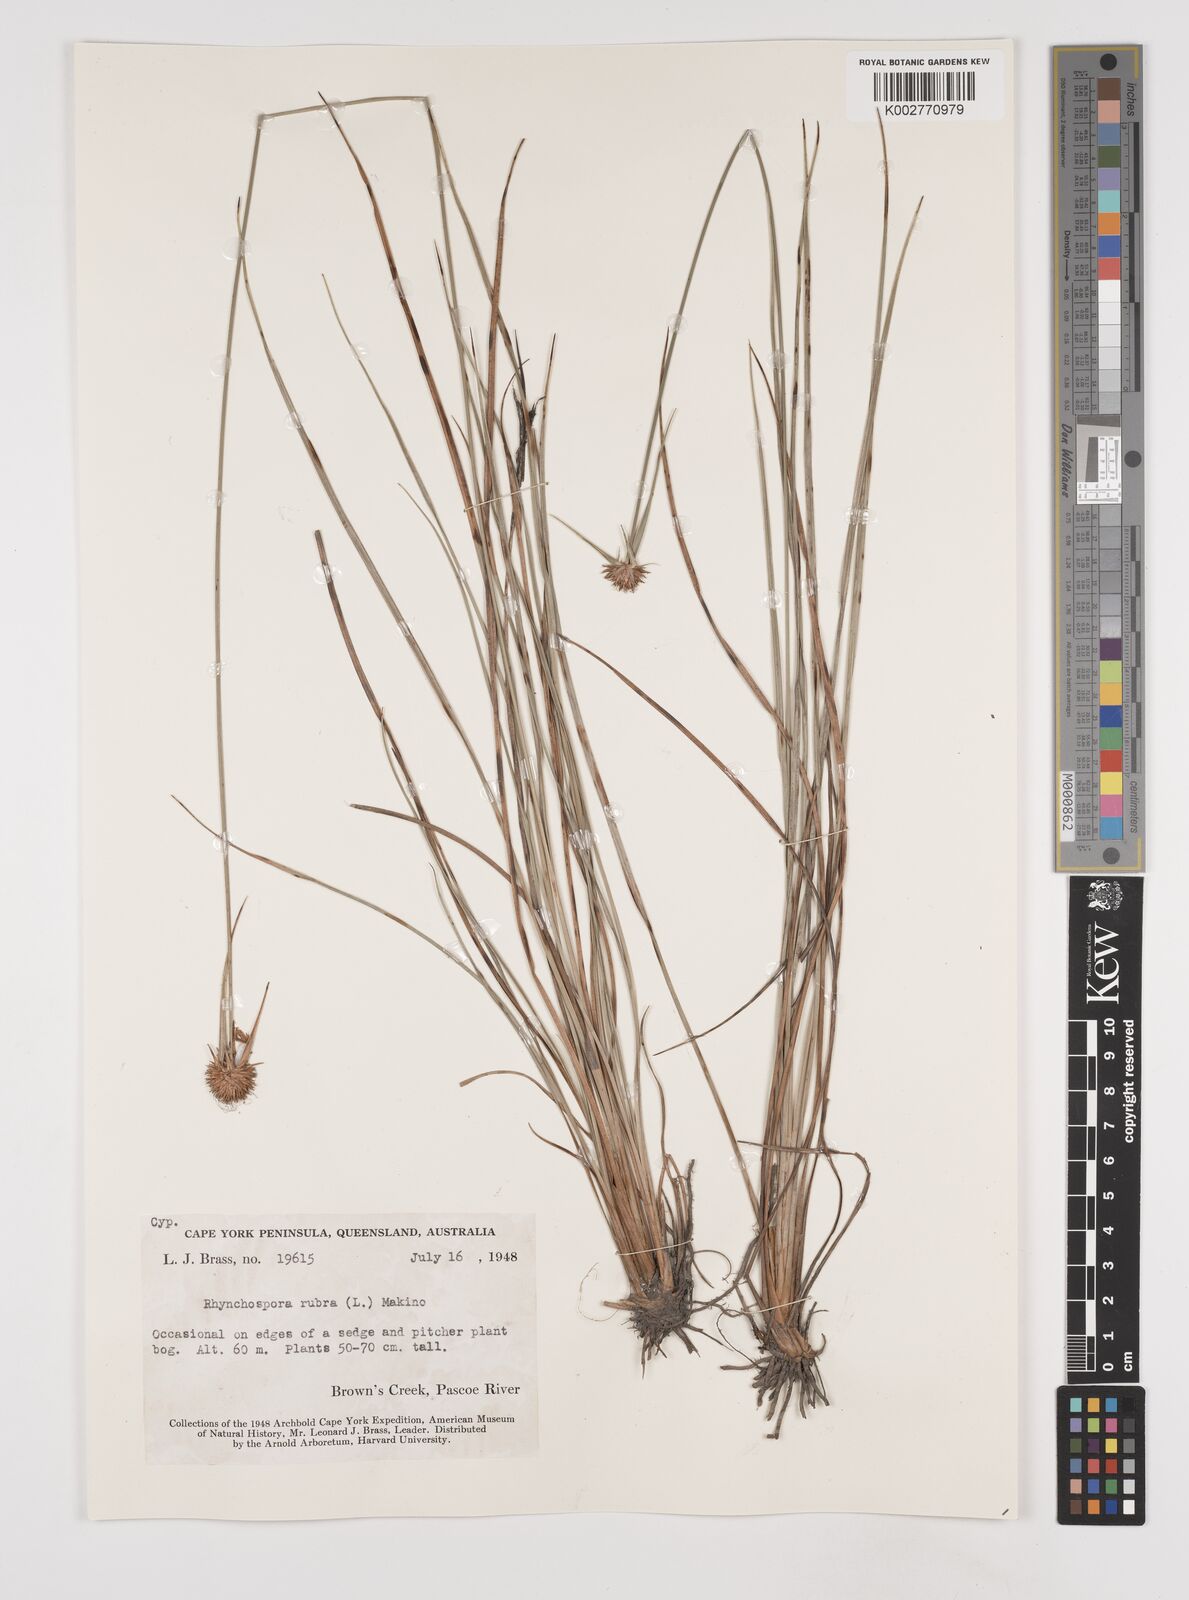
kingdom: Plantae
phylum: Tracheophyta
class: Liliopsida
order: Poales
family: Cyperaceae
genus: Rhynchospora
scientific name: Rhynchospora rubra
